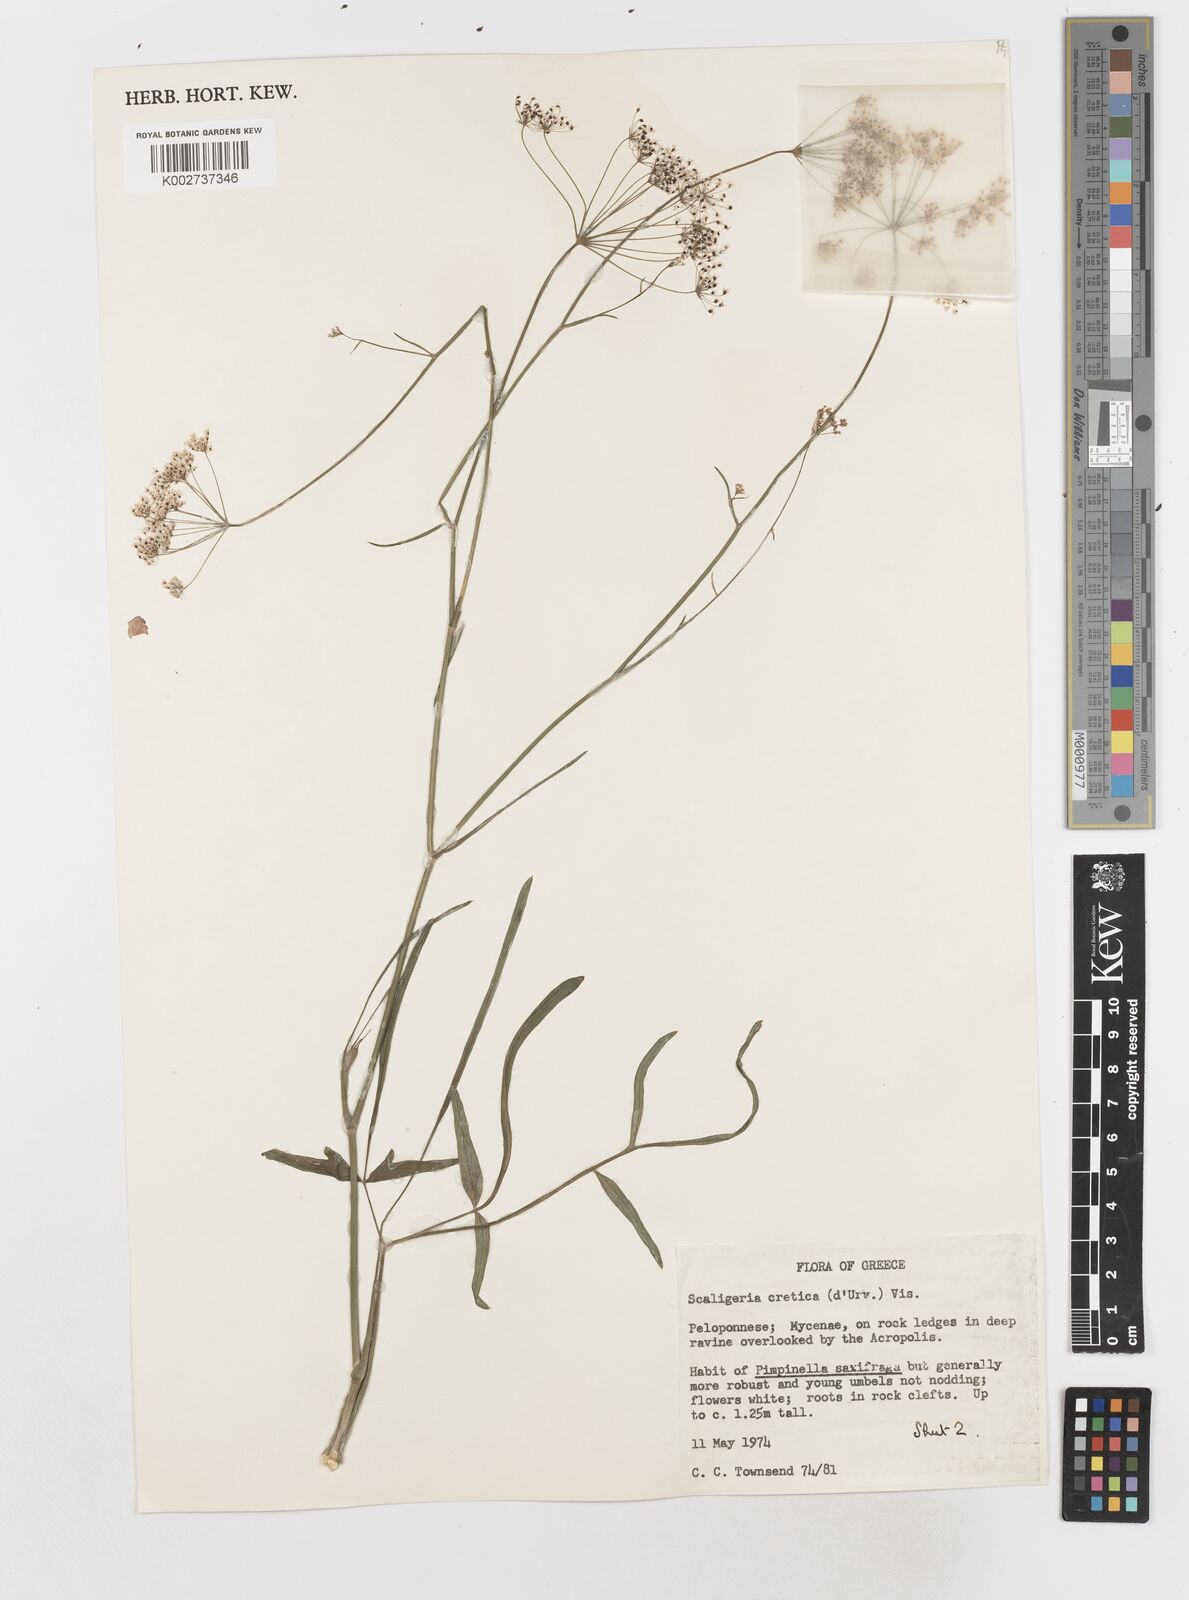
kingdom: Plantae
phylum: Tracheophyta
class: Magnoliopsida
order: Apiales
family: Apiaceae
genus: Scaligeria
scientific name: Scaligeria napiformis
